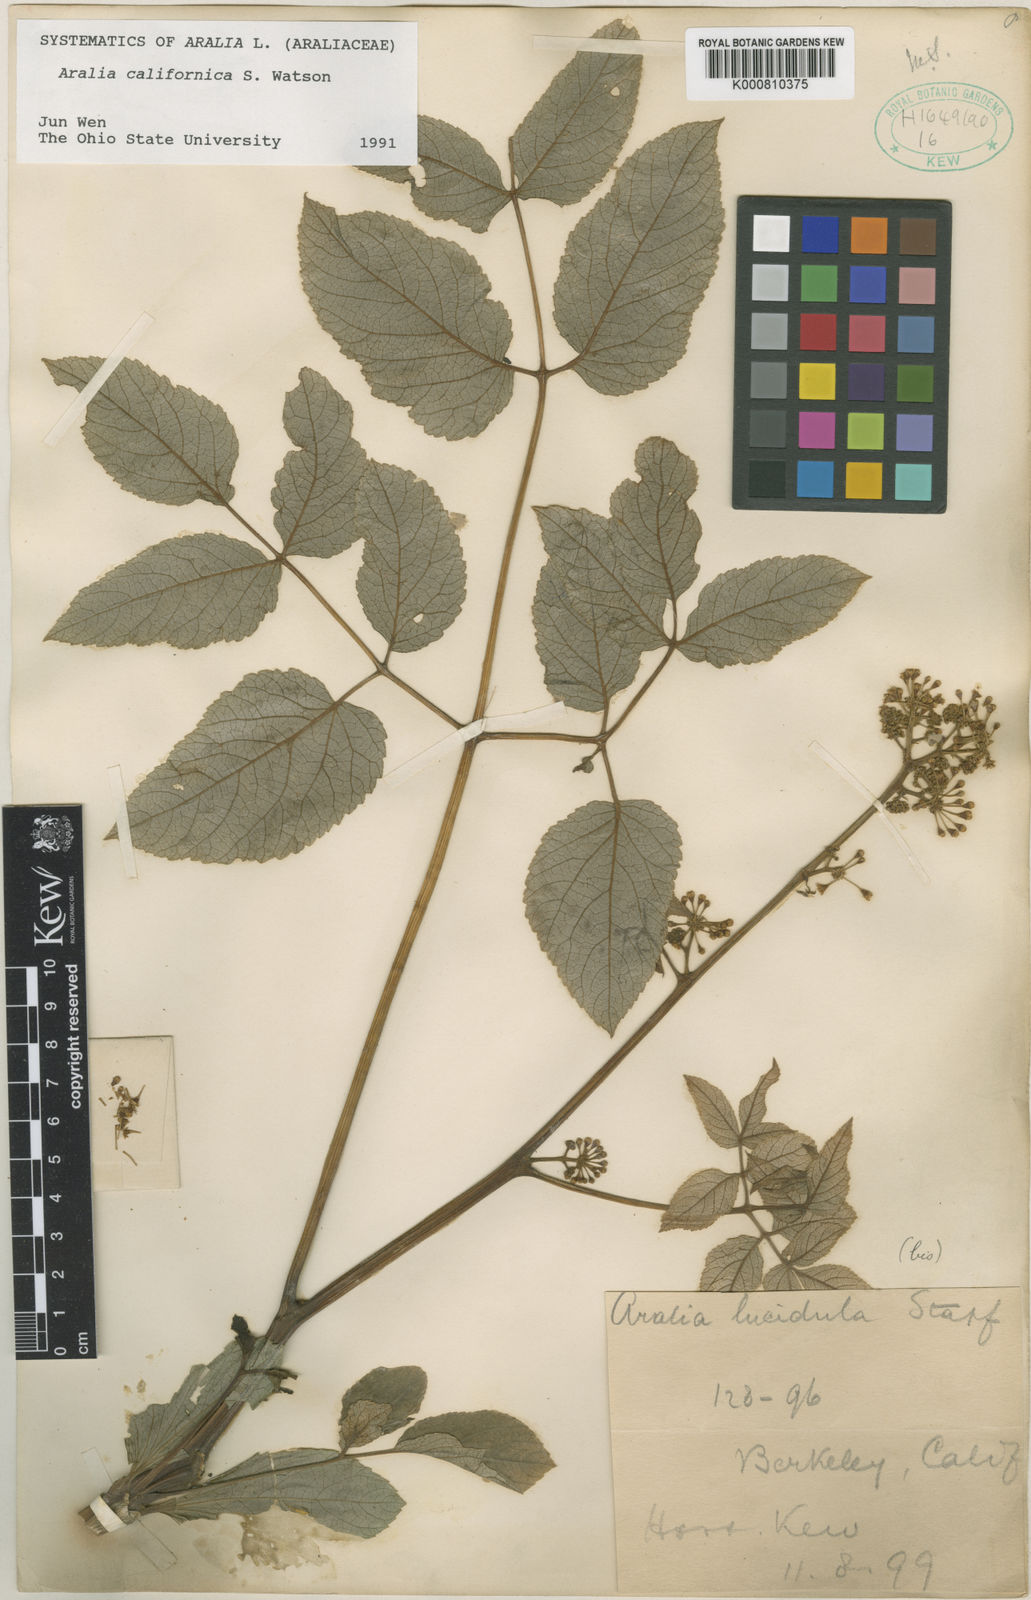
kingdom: Plantae
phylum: Tracheophyta
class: Magnoliopsida
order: Apiales
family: Araliaceae
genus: Aralia
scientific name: Aralia cachemirica
